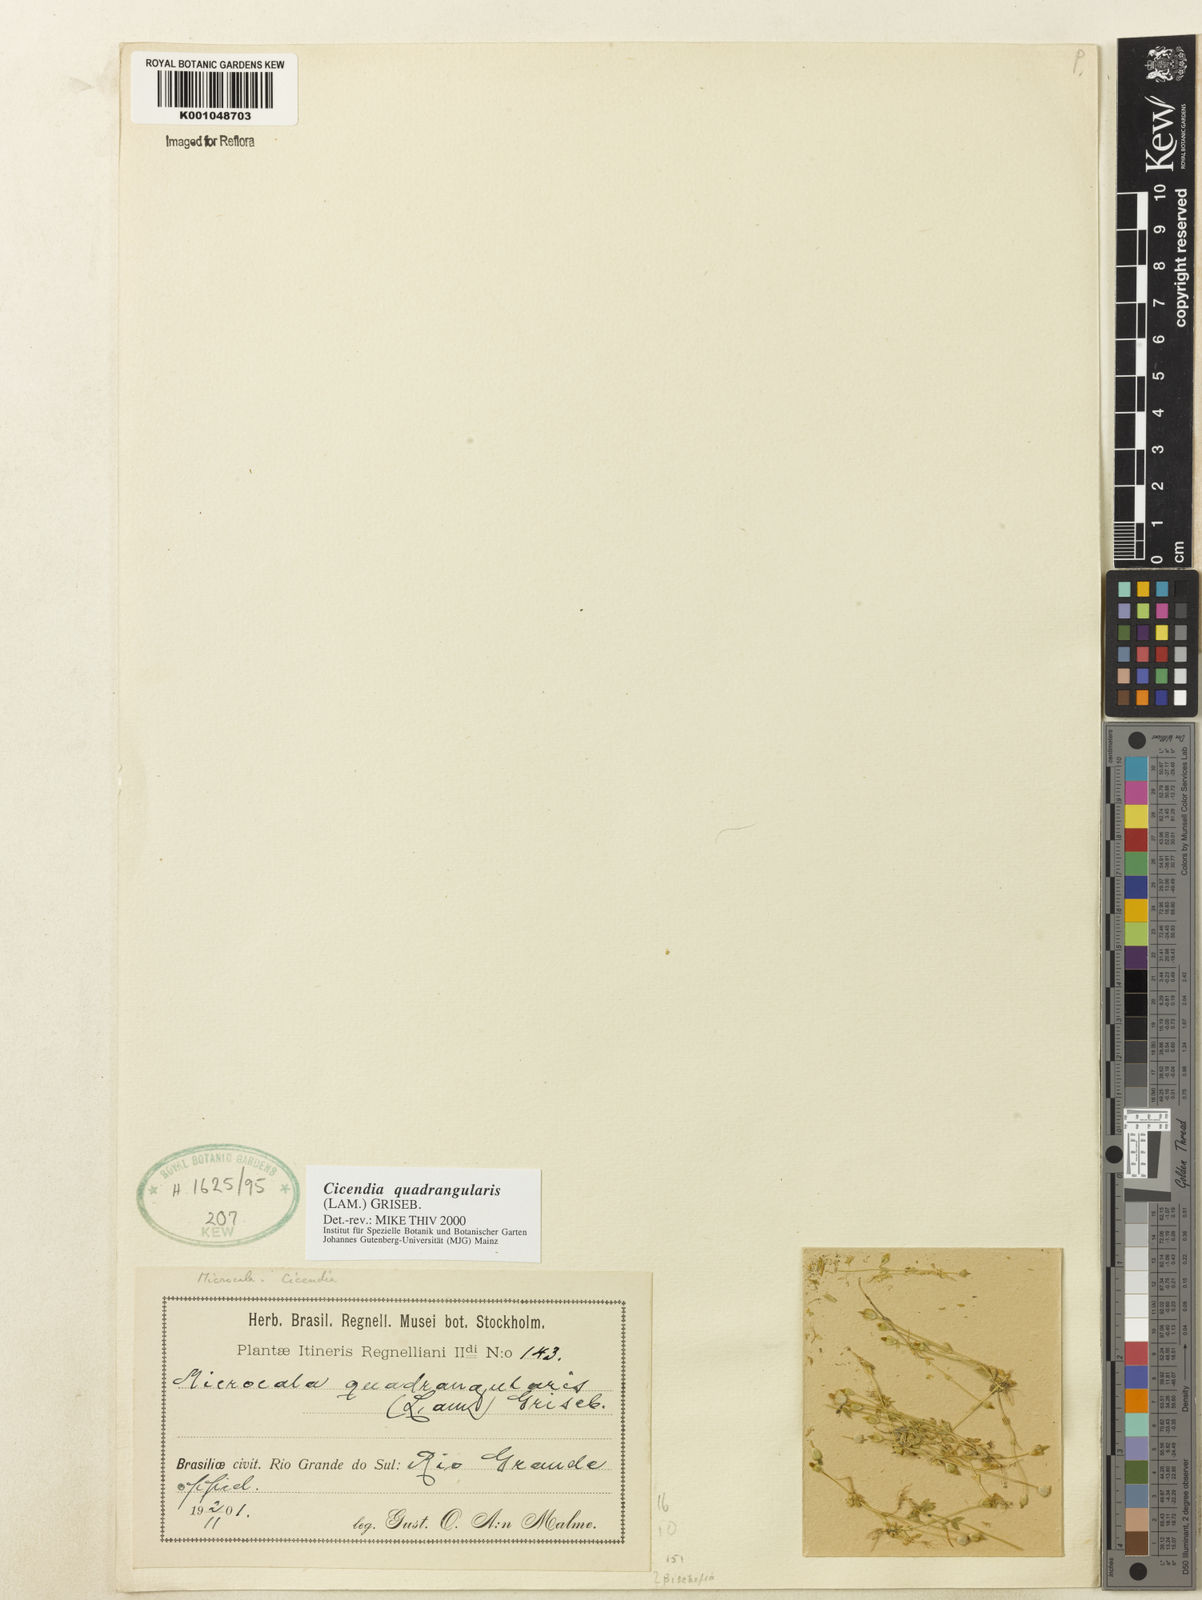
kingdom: Plantae
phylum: Tracheophyta
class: Magnoliopsida
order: Gentianales
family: Gentianaceae
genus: Microcala
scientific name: Microcala quadrangularis
